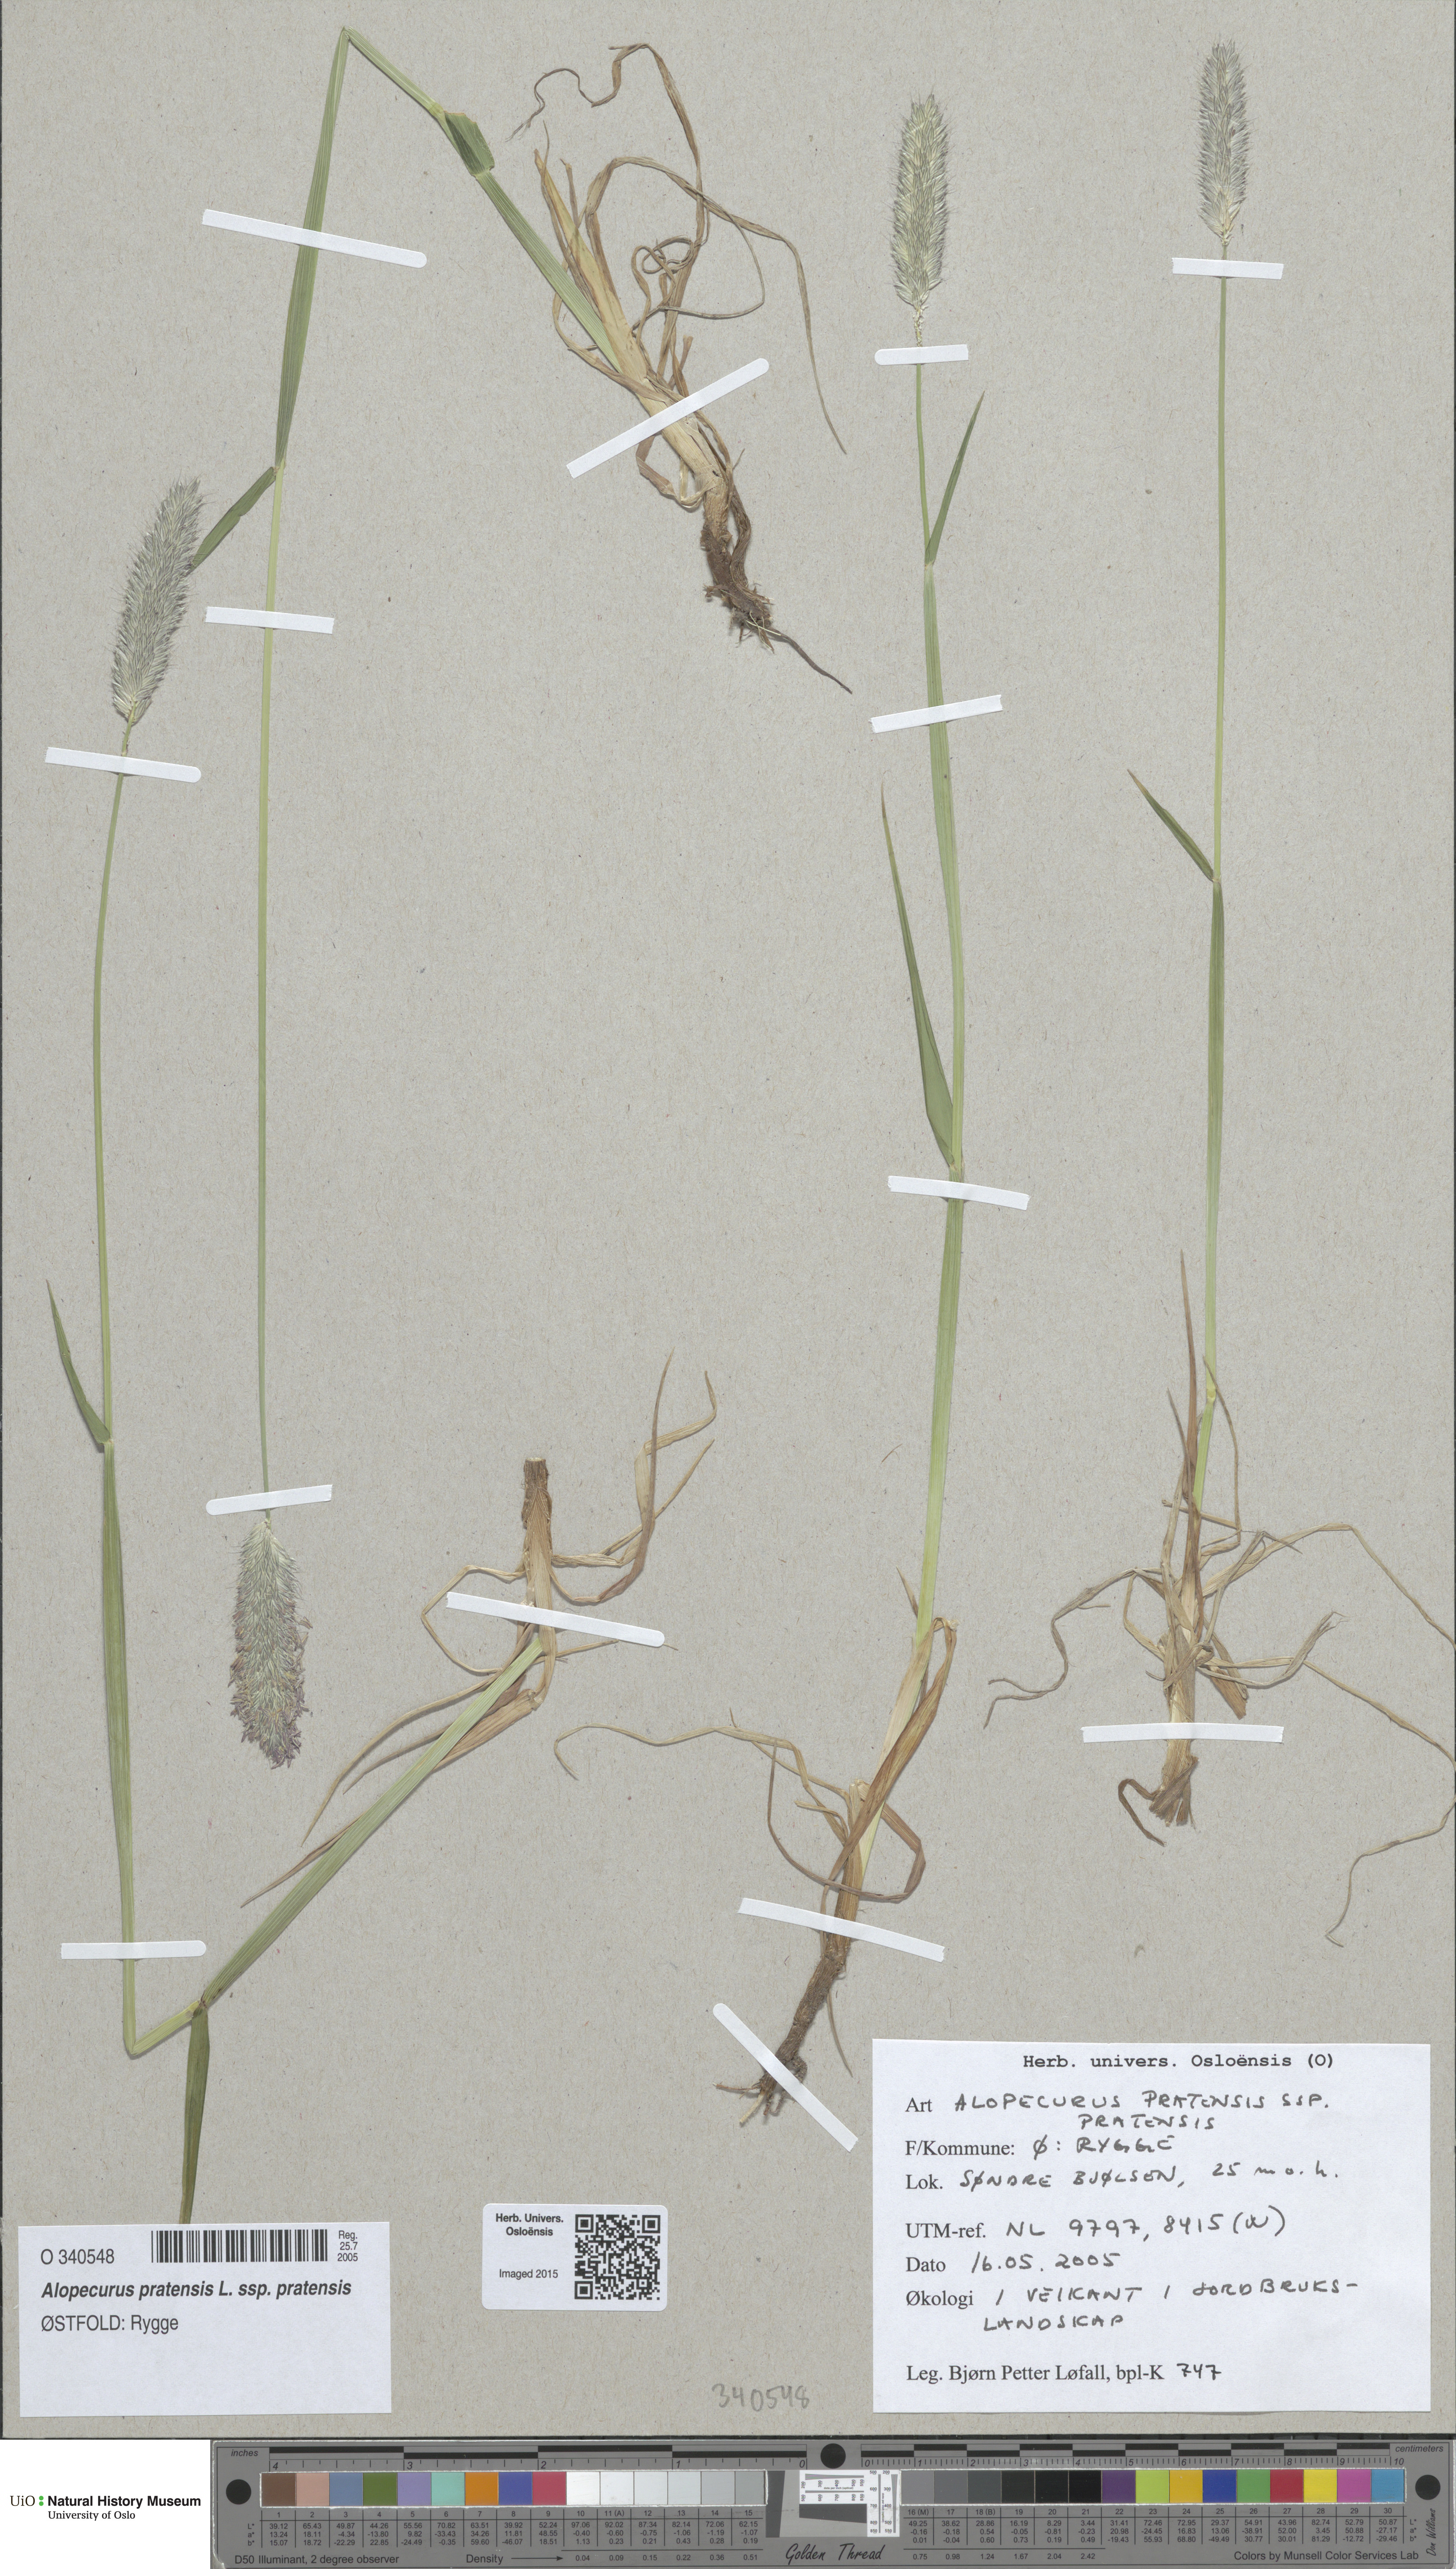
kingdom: Plantae
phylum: Tracheophyta
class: Liliopsida
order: Poales
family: Poaceae
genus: Alopecurus
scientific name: Alopecurus pratensis
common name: Meadow foxtail
